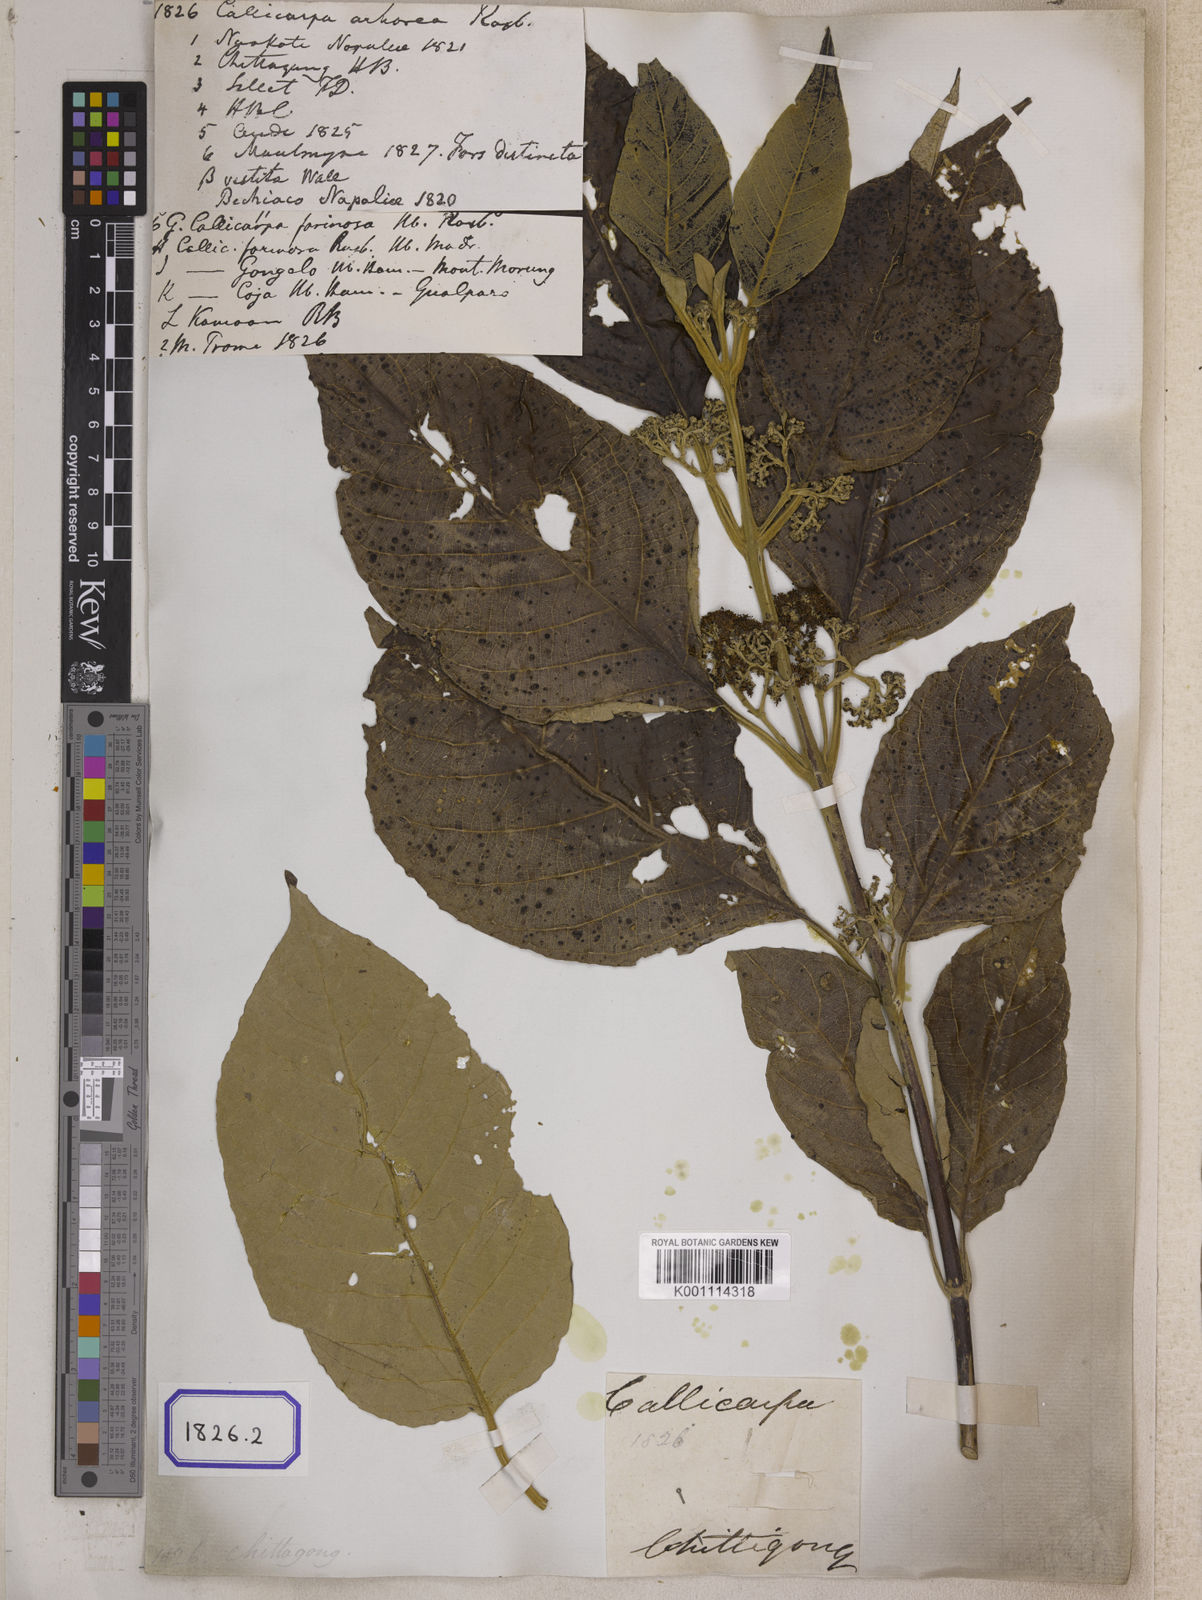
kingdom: Plantae
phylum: Tracheophyta
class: Magnoliopsida
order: Lamiales
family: Lamiaceae
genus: Callicarpa
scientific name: Callicarpa arborea
